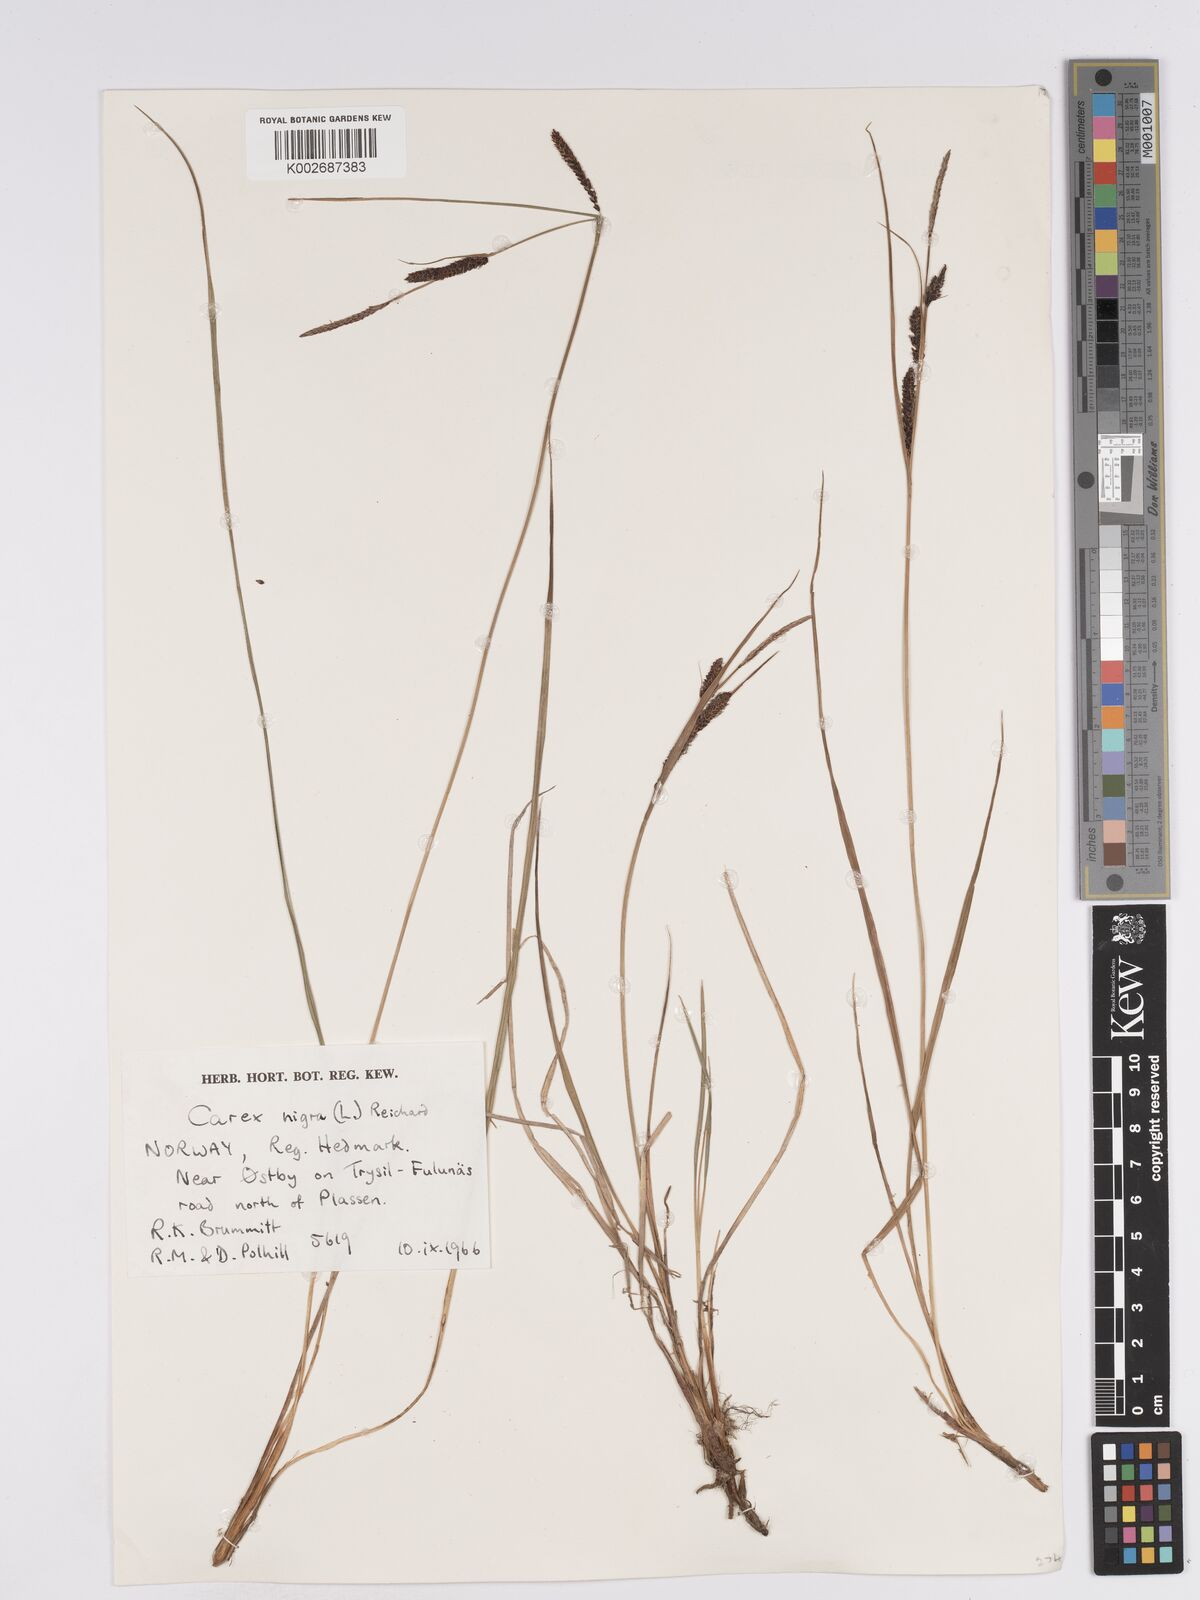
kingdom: Plantae
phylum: Tracheophyta
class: Liliopsida
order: Poales
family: Cyperaceae
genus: Carex
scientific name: Carex nigra
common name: Common sedge
